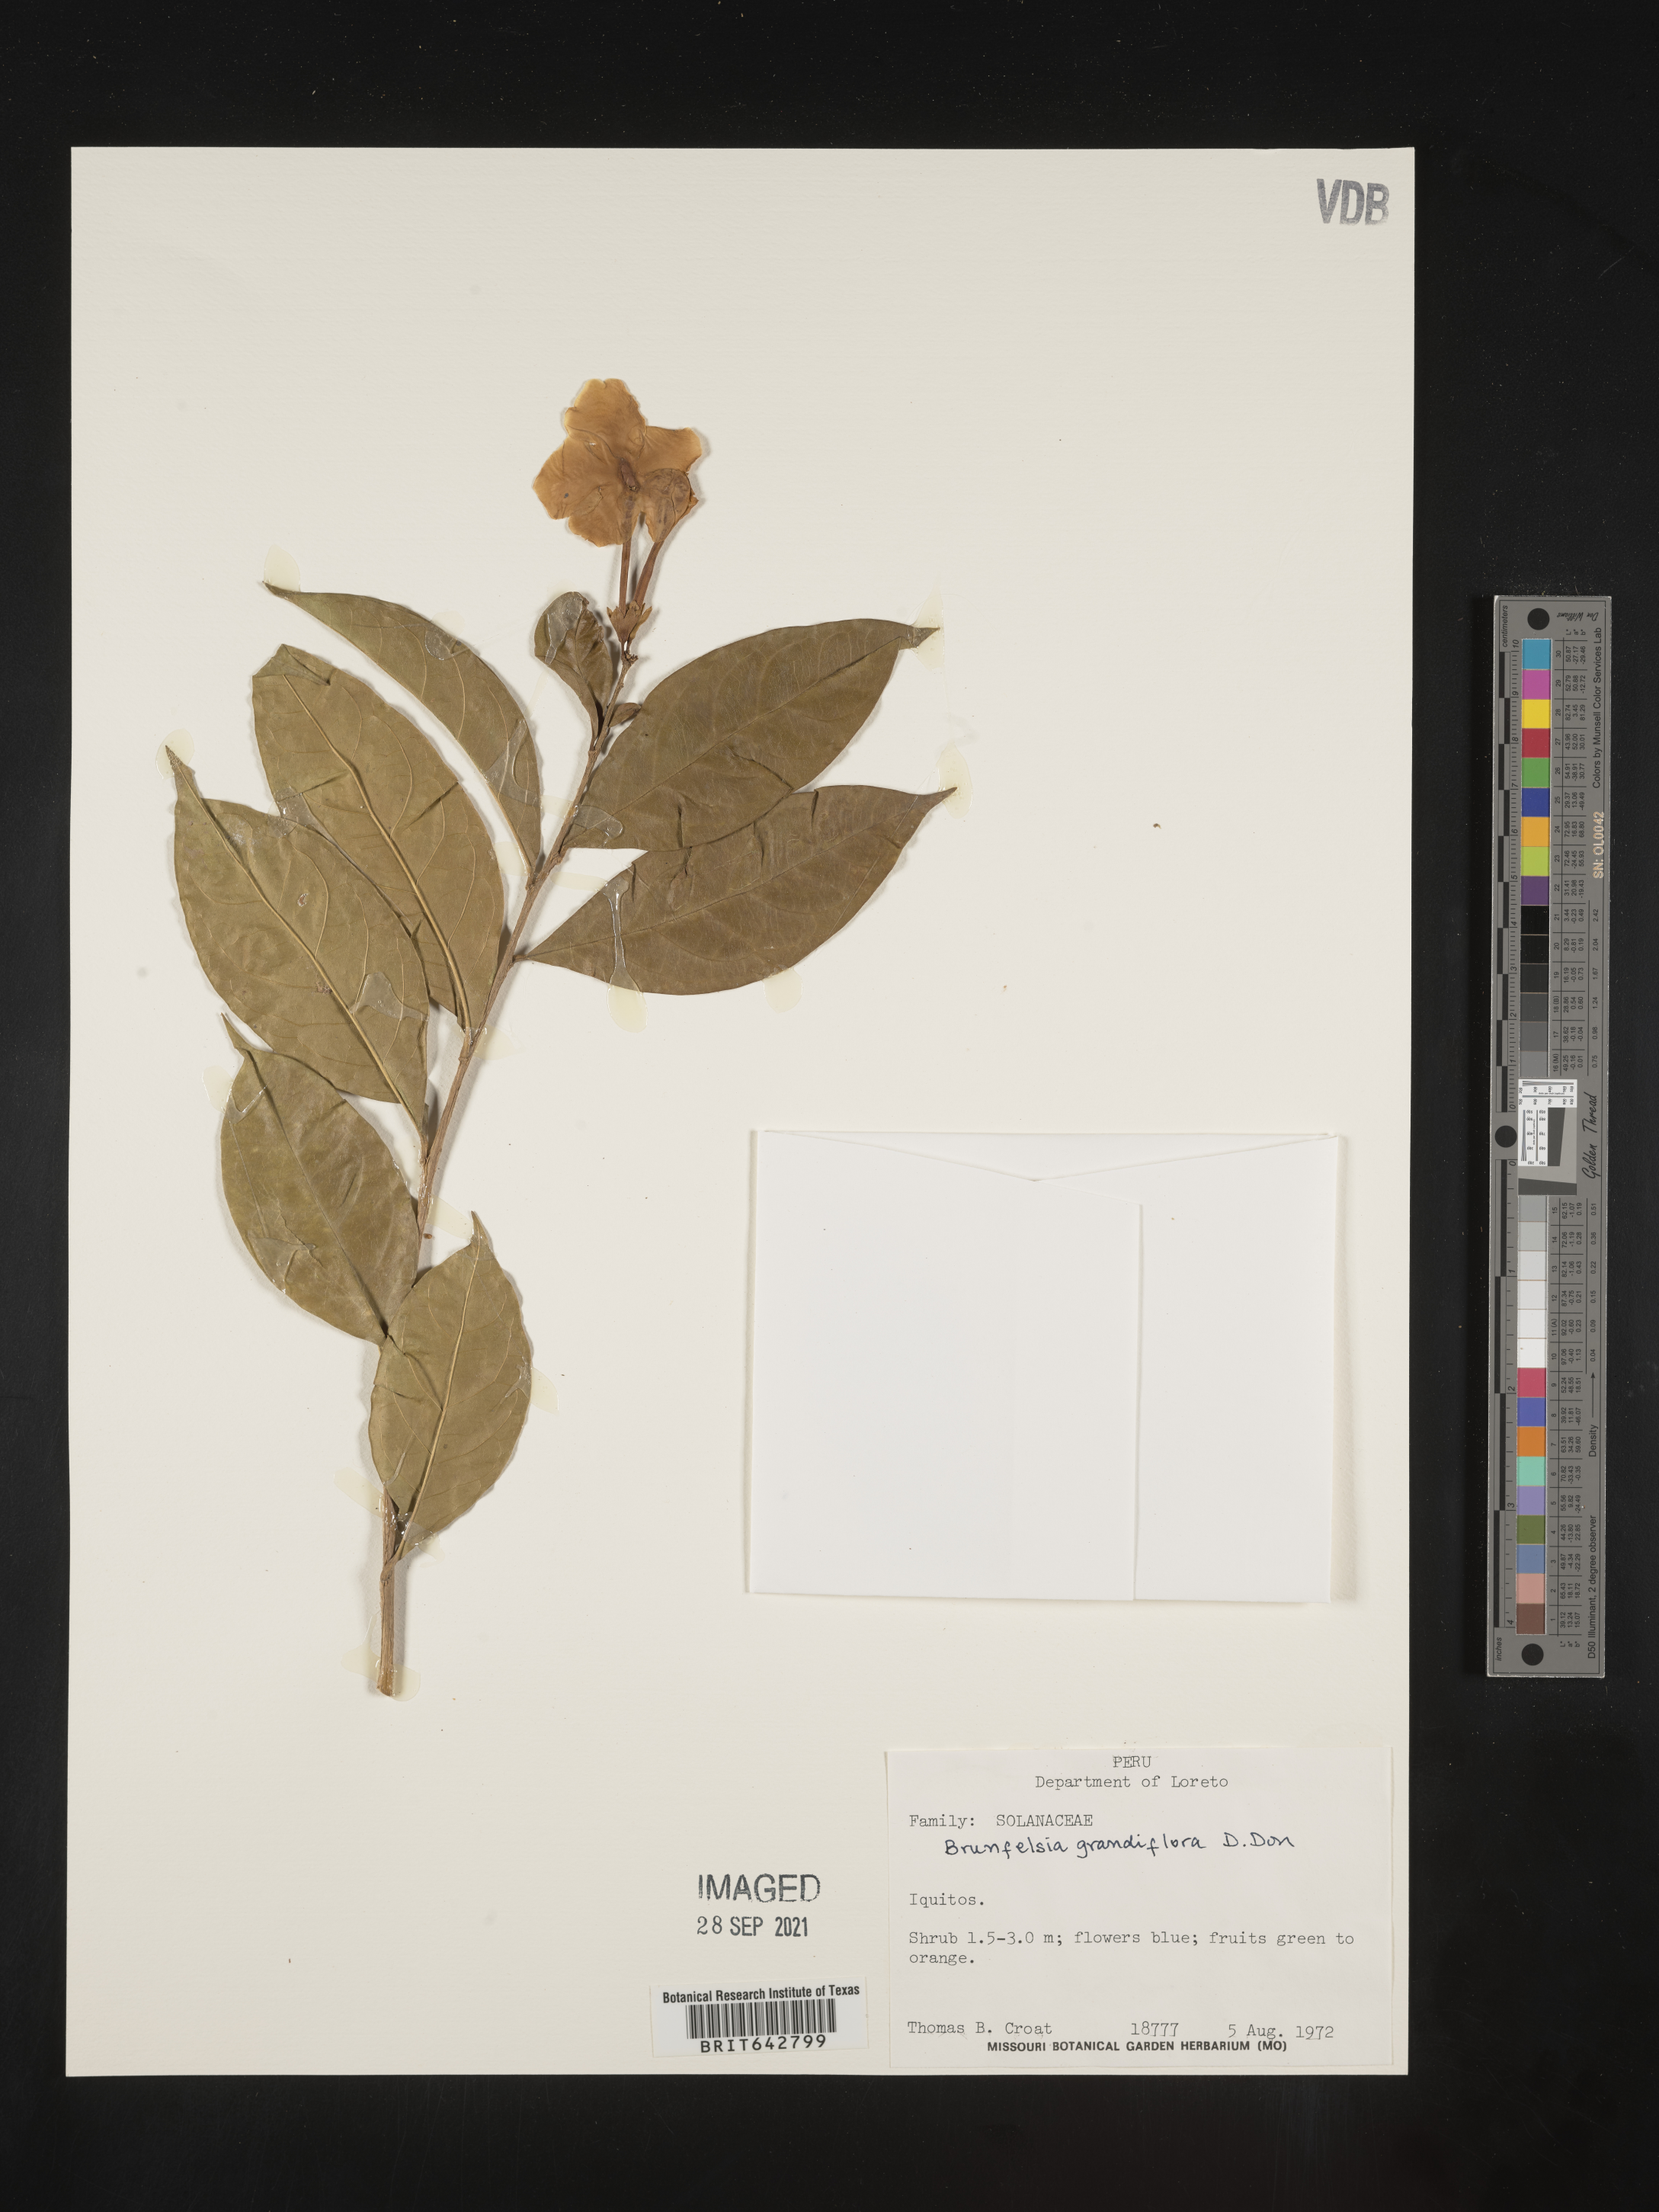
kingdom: Plantae
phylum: Tracheophyta
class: Magnoliopsida
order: Solanales
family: Solanaceae
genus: Brunfelsia
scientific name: Brunfelsia
